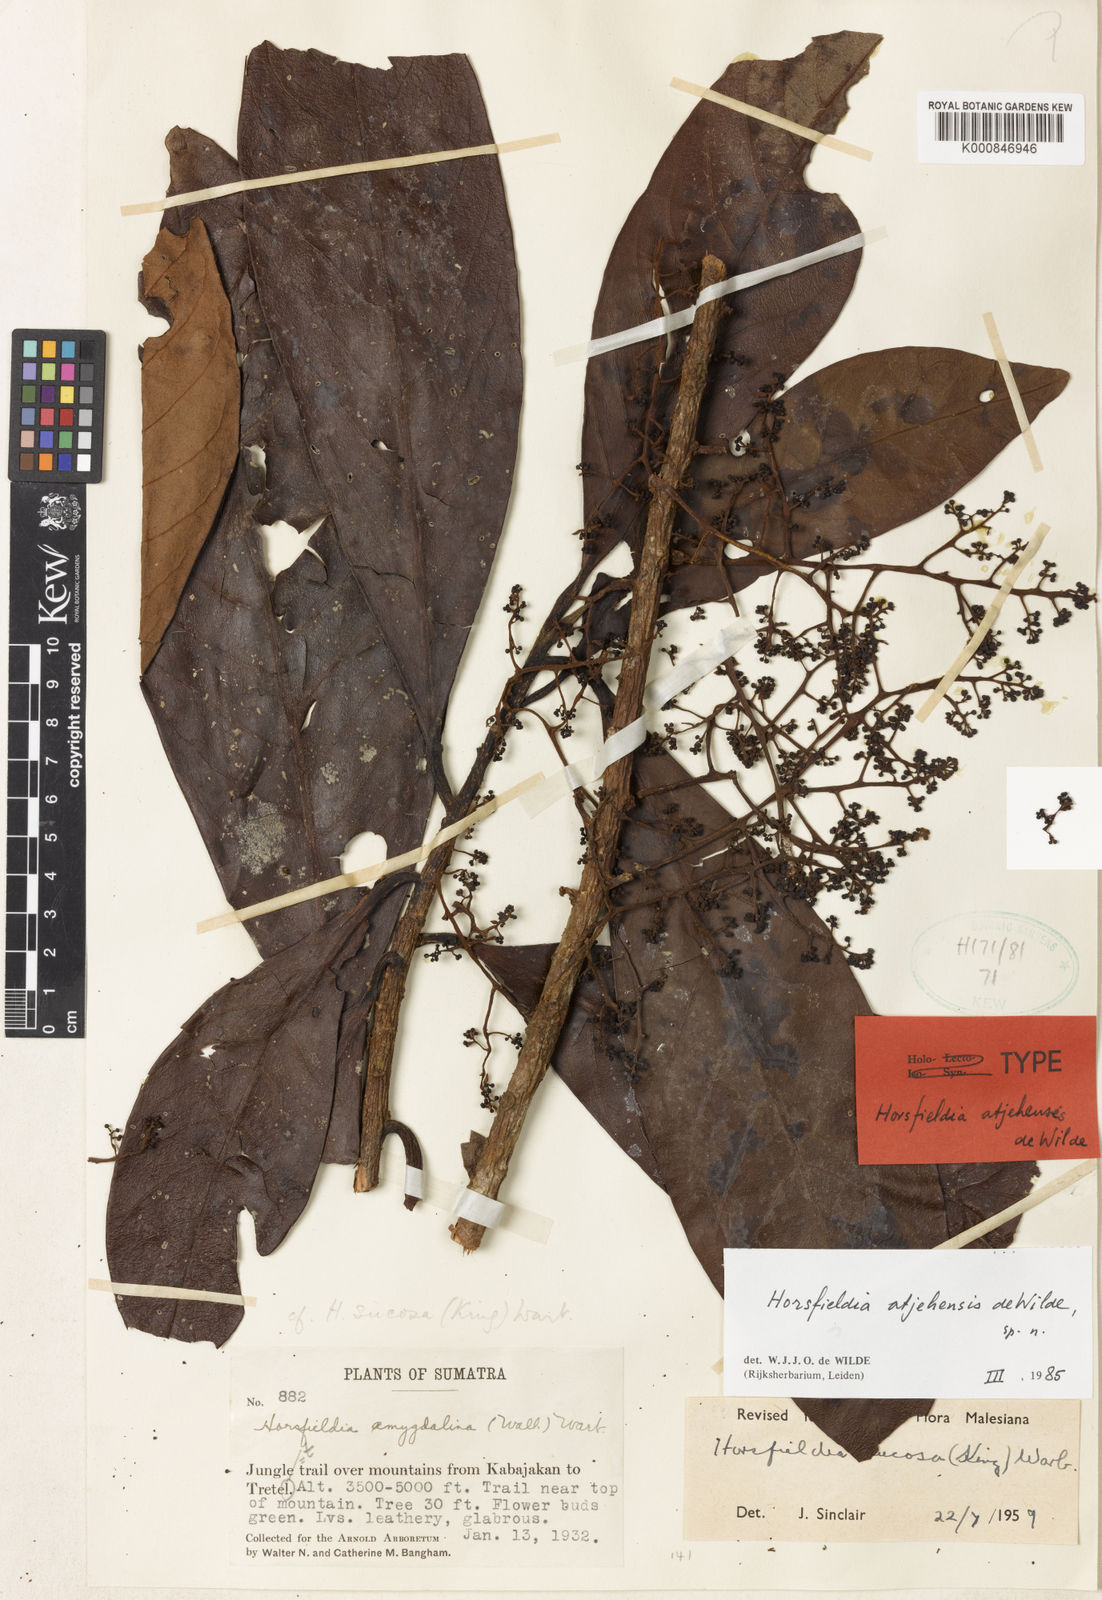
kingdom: Plantae
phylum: Tracheophyta
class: Magnoliopsida
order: Magnoliales
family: Myristicaceae
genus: Horsfieldia
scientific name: Horsfieldia atjehensis
